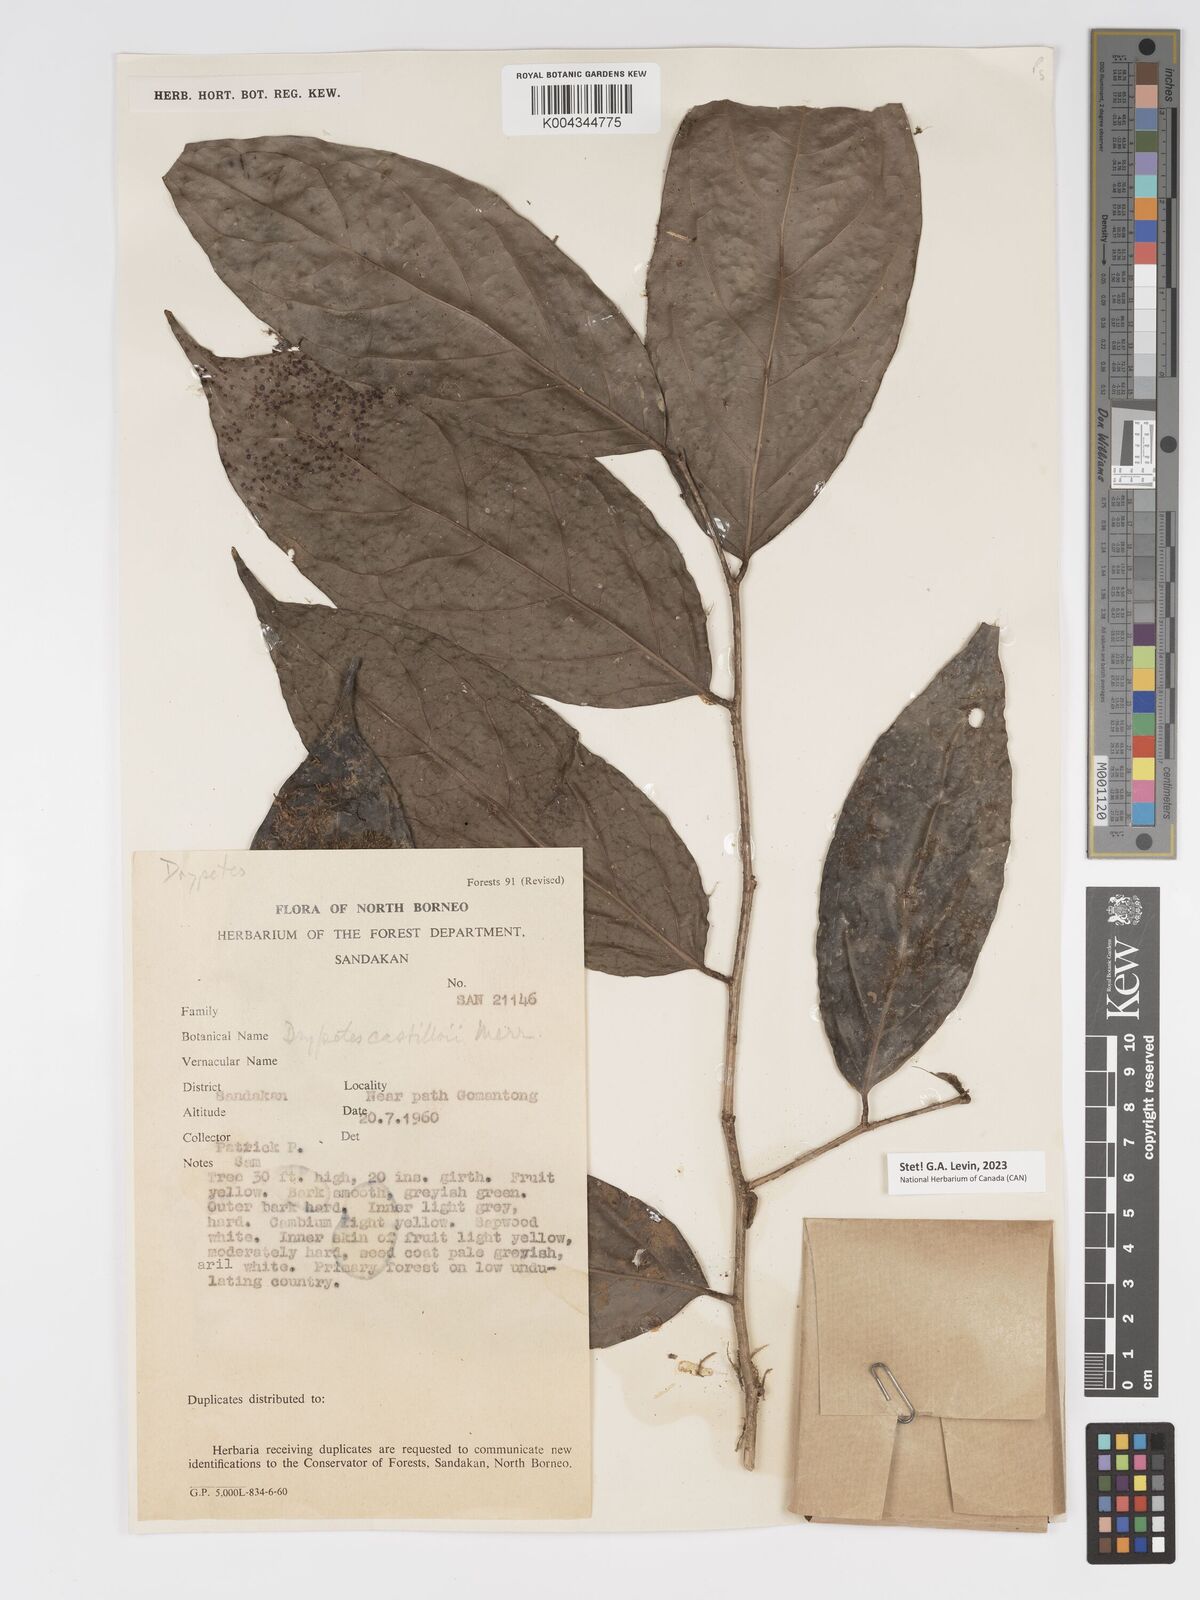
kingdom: Plantae
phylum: Tracheophyta
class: Magnoliopsida
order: Malpighiales
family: Putranjivaceae
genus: Drypetes
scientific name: Drypetes castilloi
